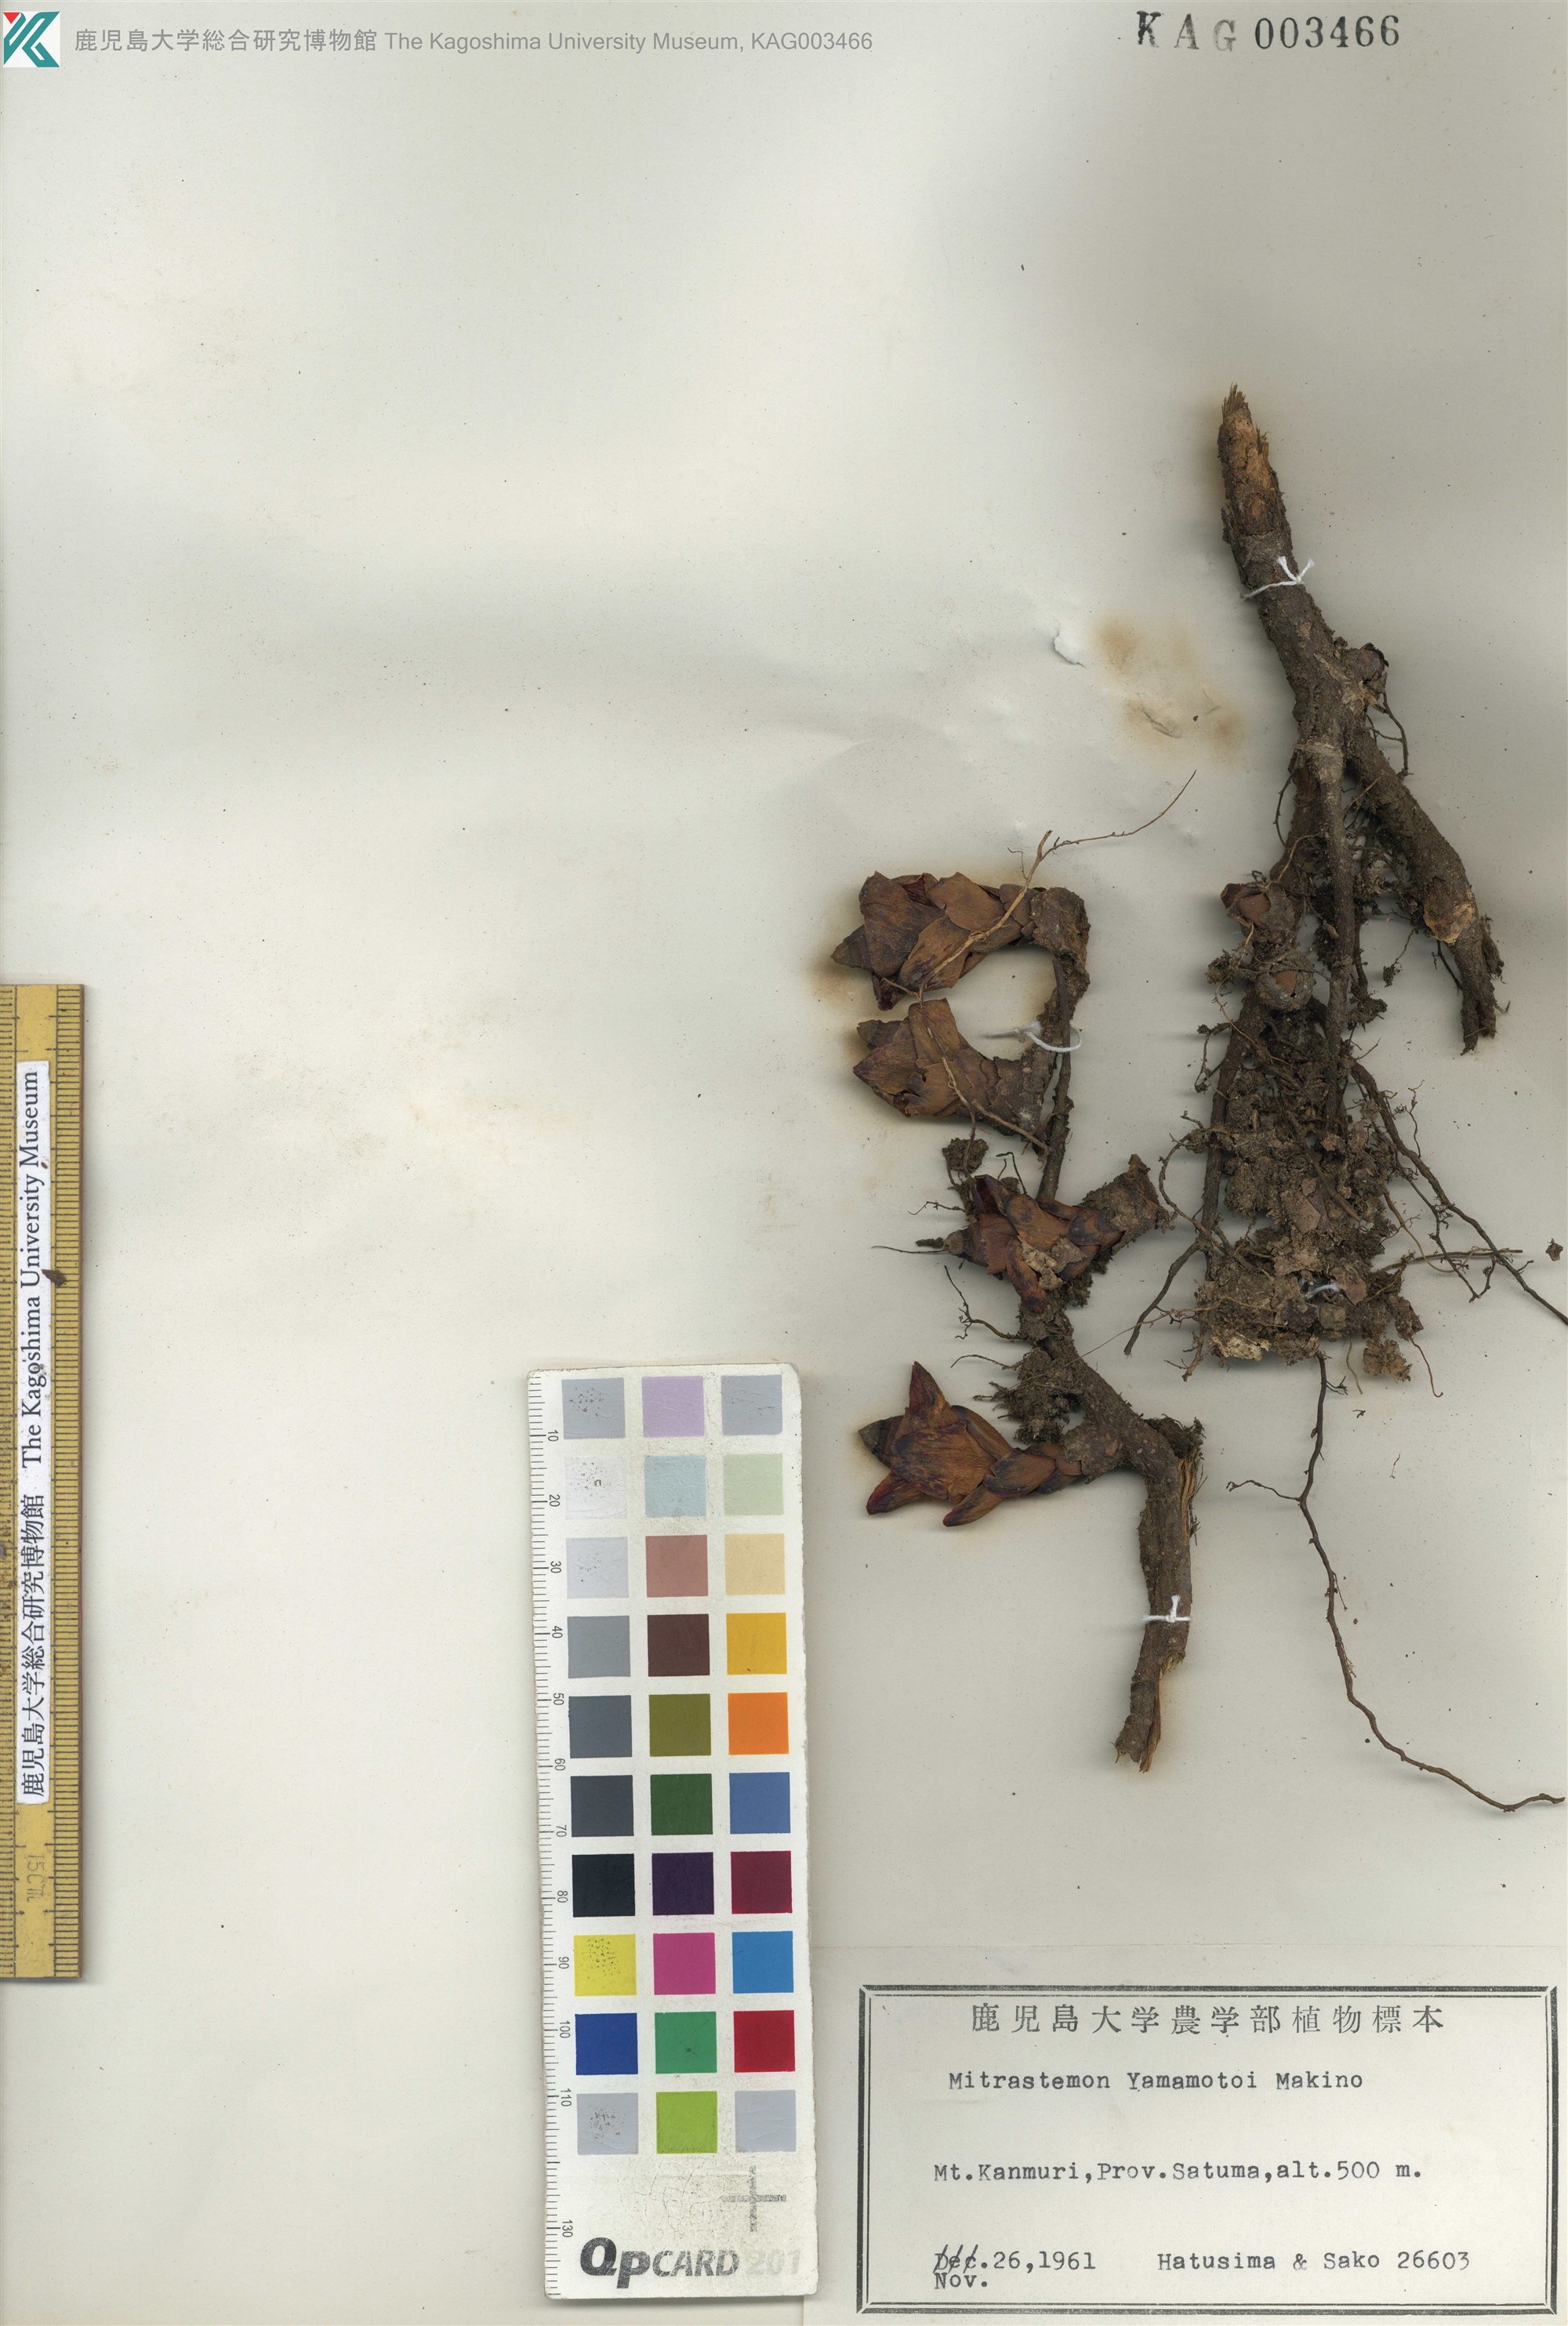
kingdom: Plantae
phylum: Tracheophyta
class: Magnoliopsida
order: Ericales
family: Mitrastemonaceae
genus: Mitrastemon
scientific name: Mitrastemon yamamotoi
